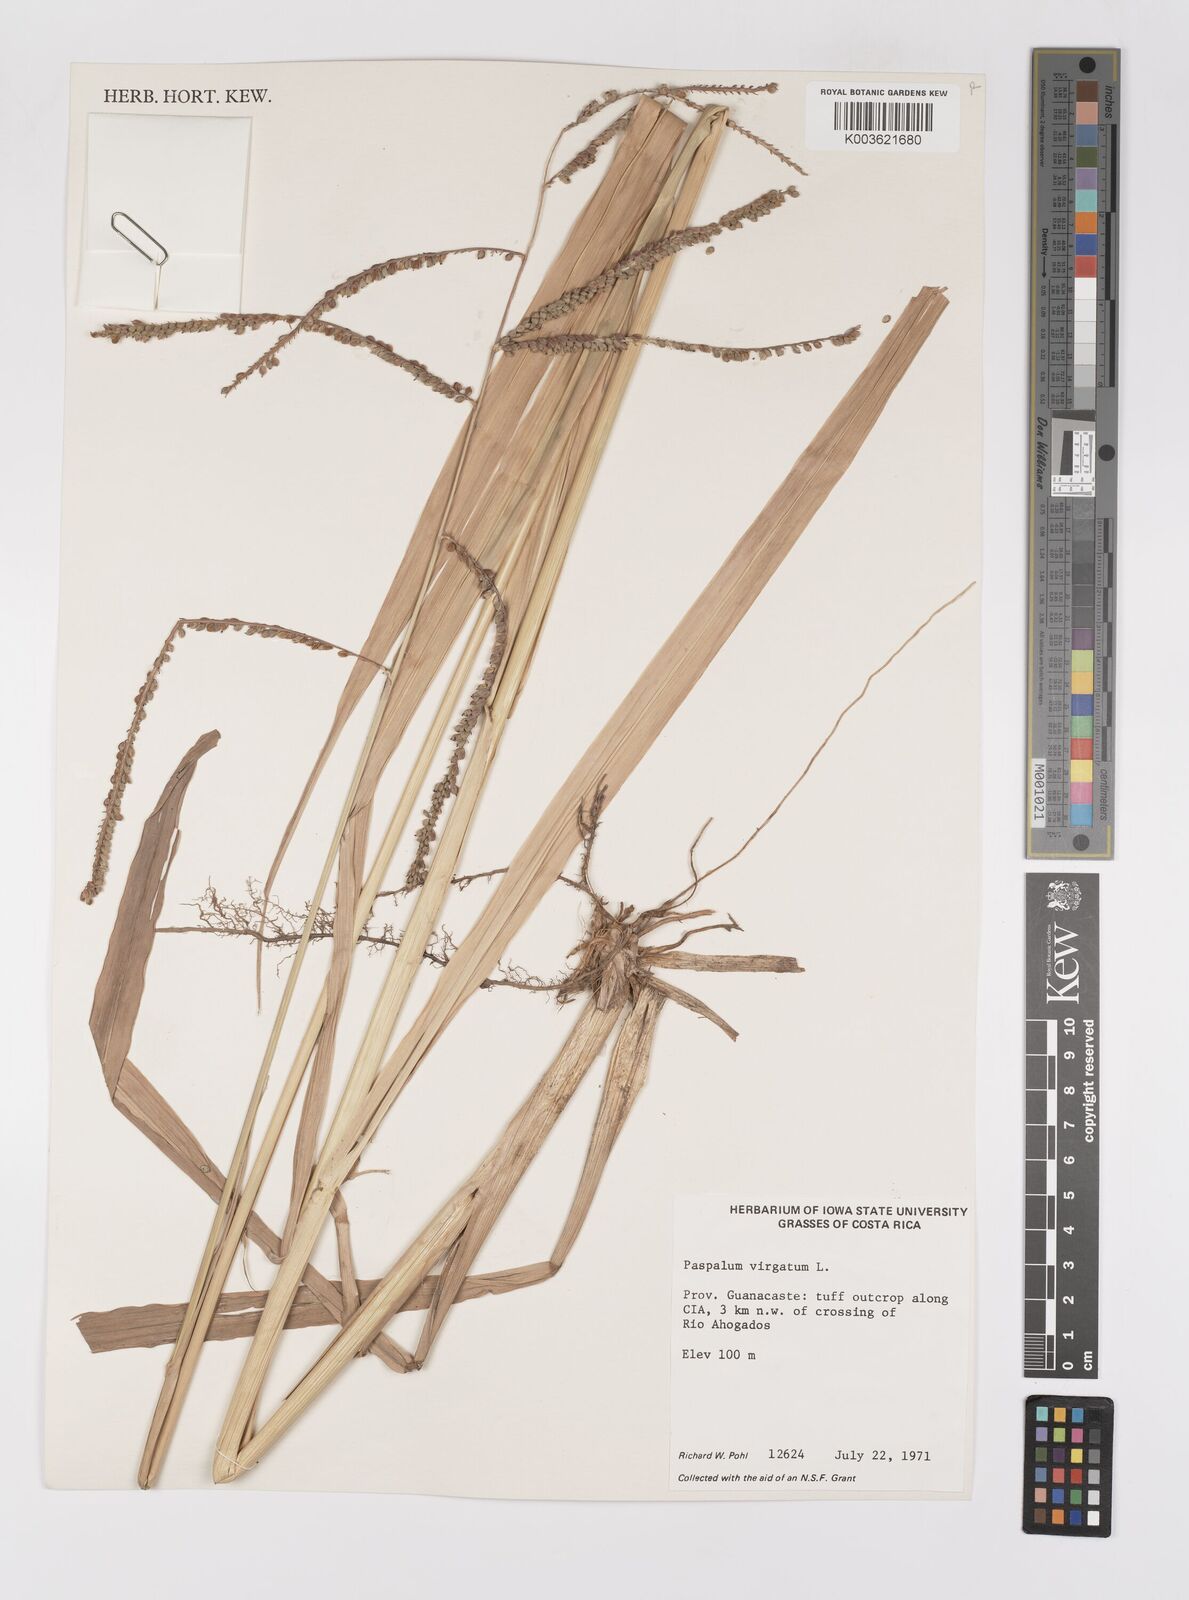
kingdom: Plantae
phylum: Tracheophyta
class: Liliopsida
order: Poales
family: Poaceae
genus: Paspalum
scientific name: Paspalum virgatum
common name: Talquezal
